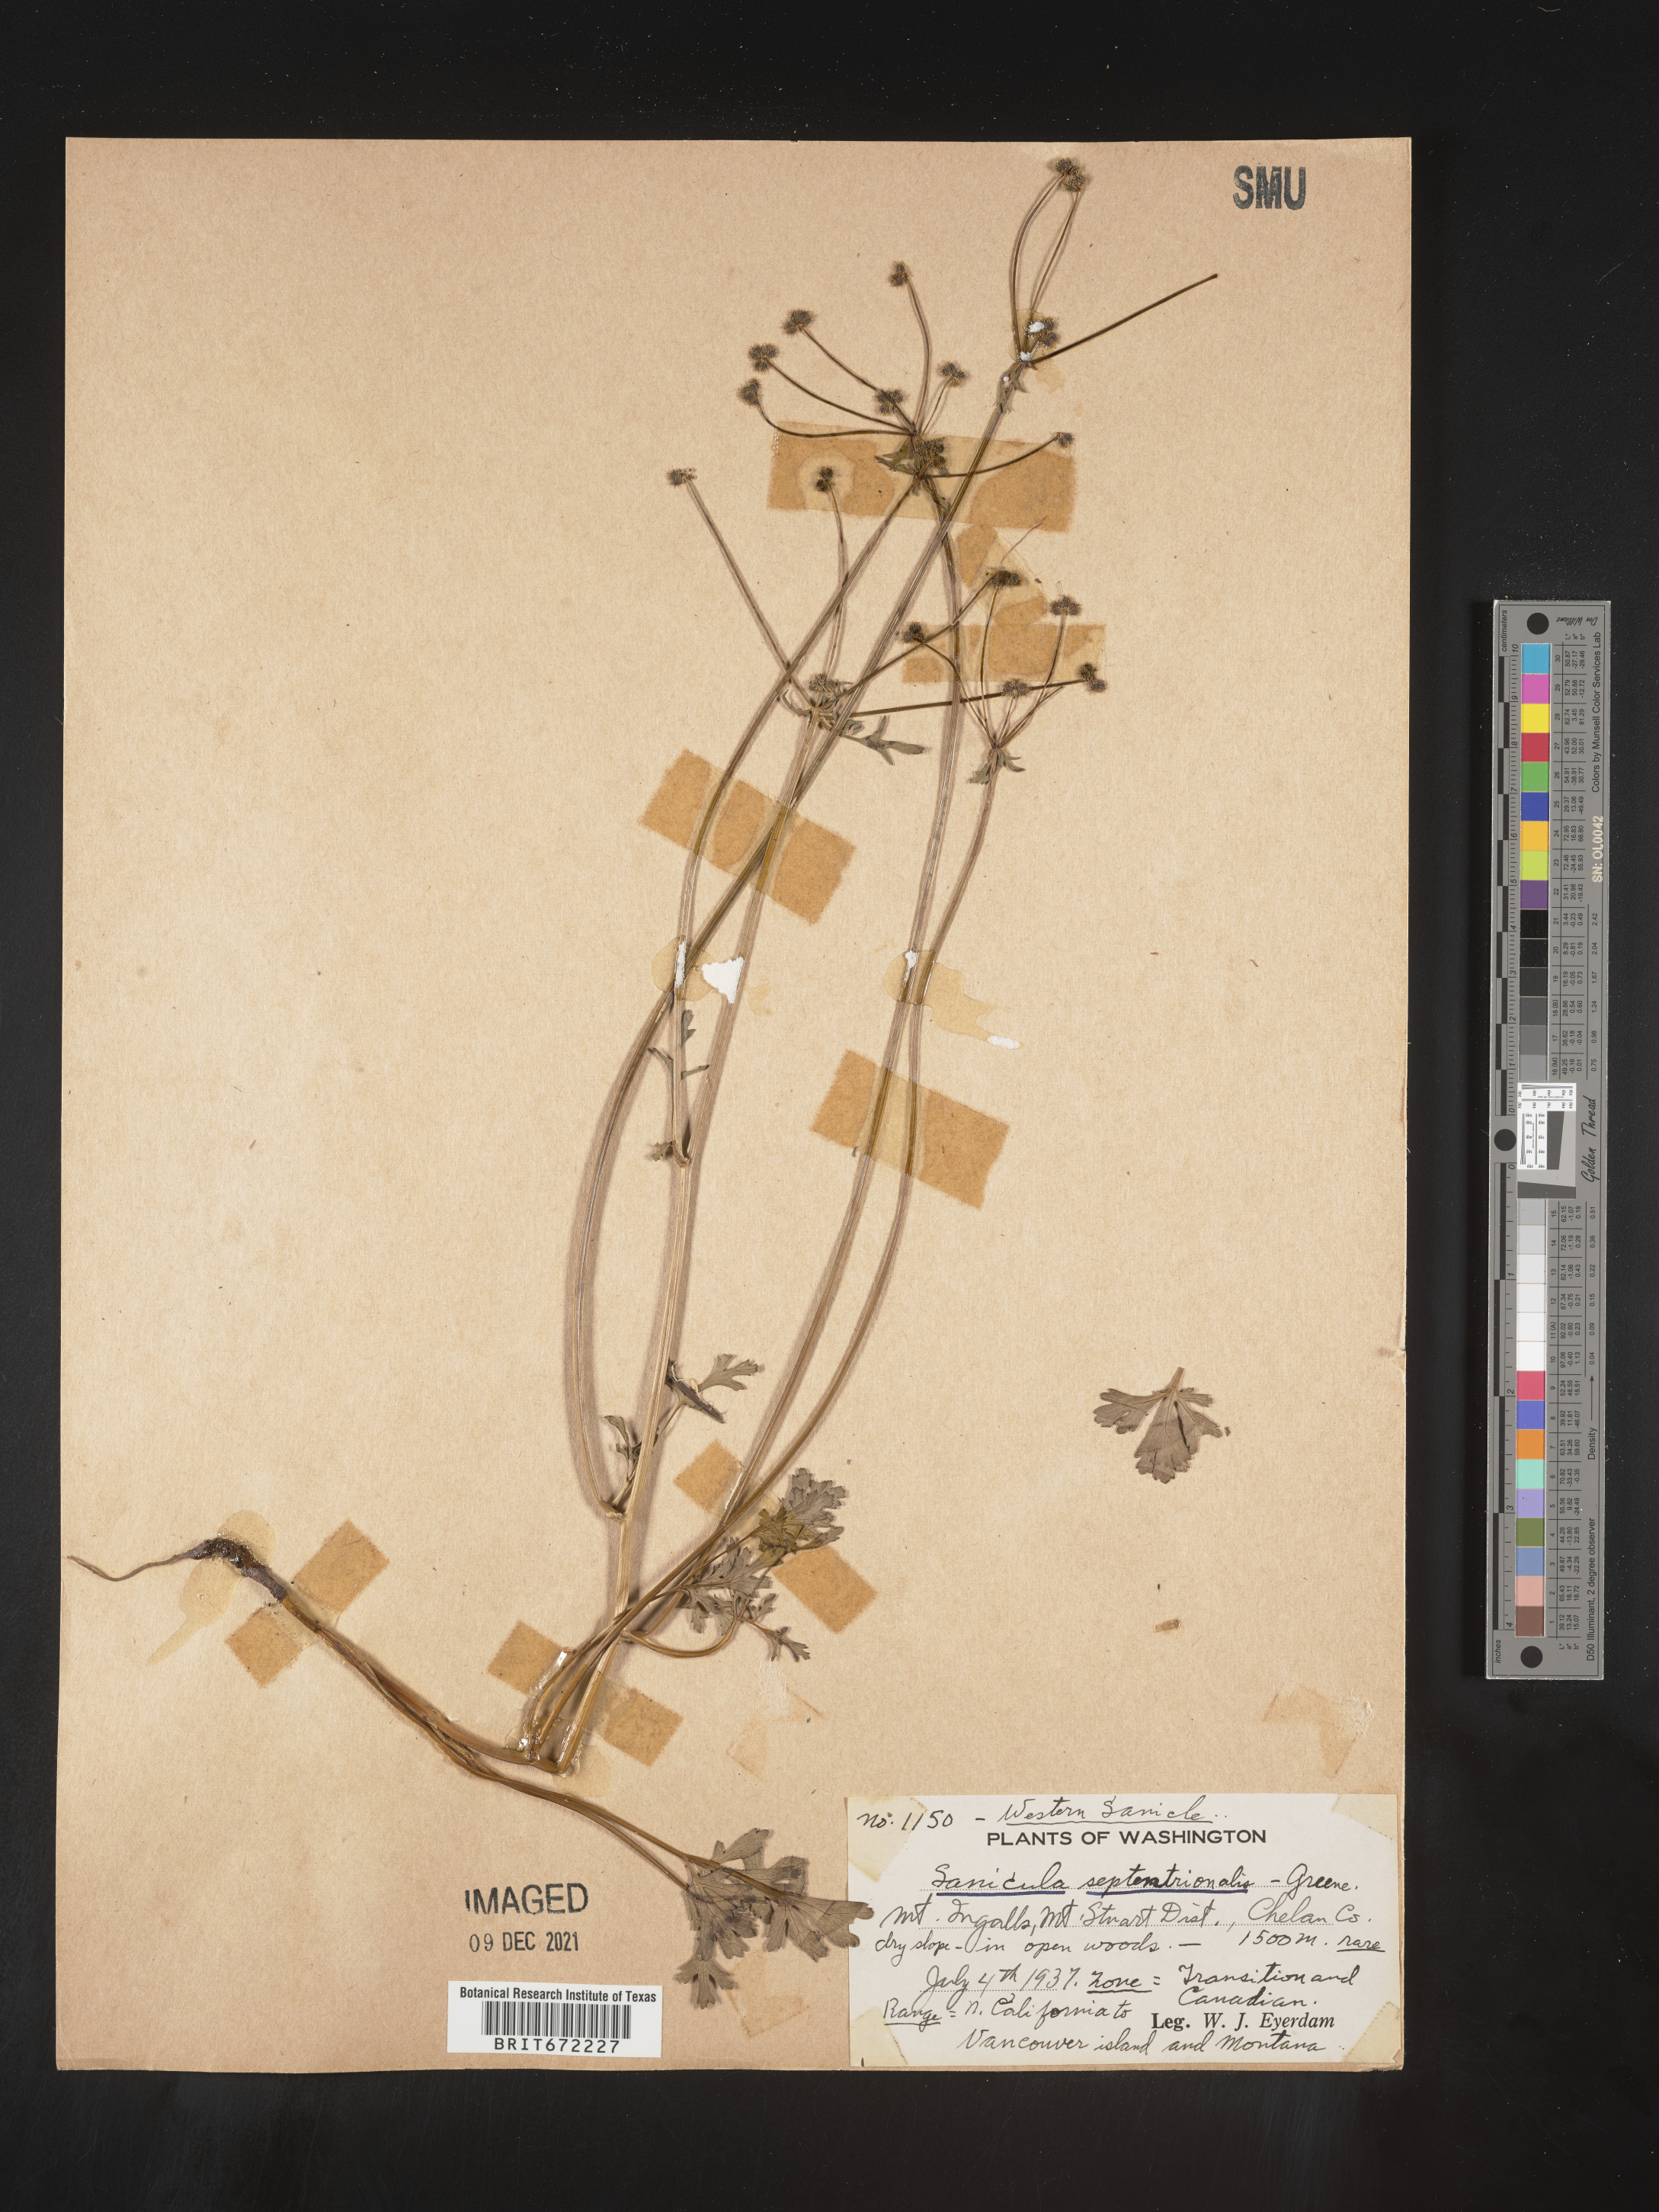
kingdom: Plantae
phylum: Tracheophyta
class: Magnoliopsida
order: Apiales
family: Apiaceae
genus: Sanicula
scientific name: Sanicula
